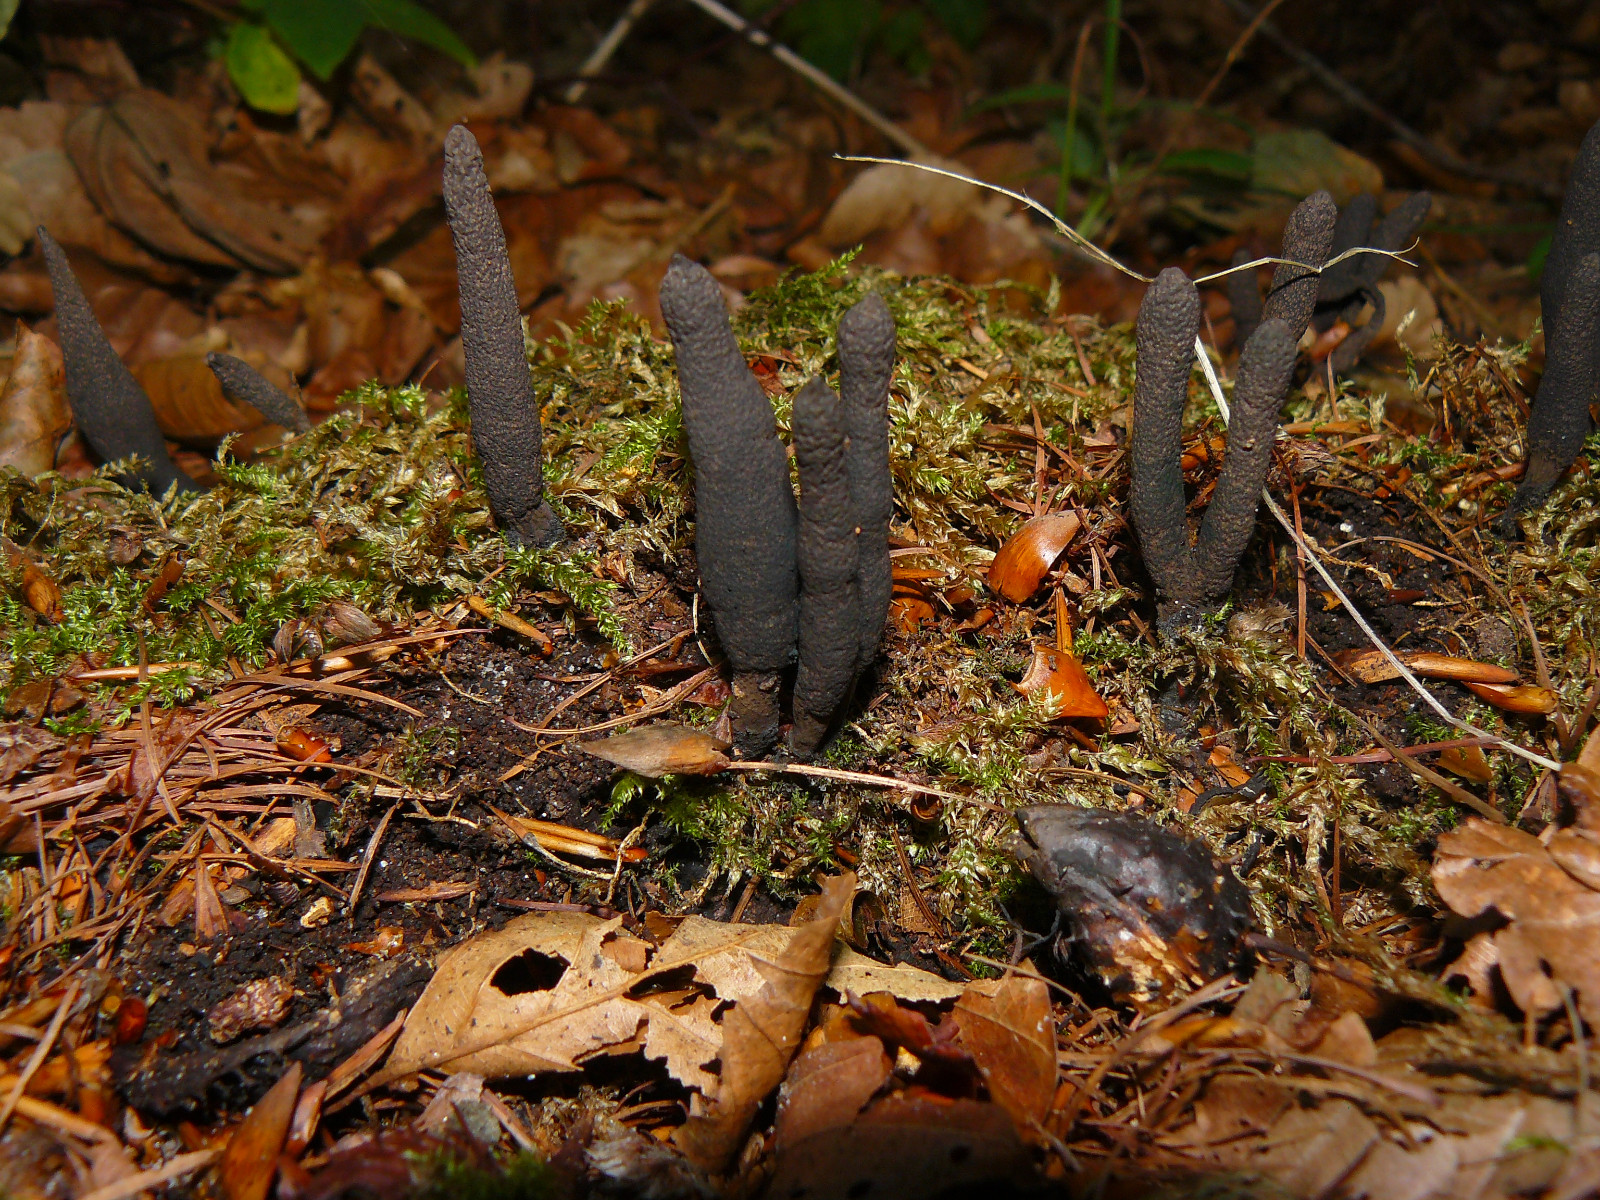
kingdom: Fungi
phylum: Ascomycota
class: Sordariomycetes
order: Xylariales
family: Xylariaceae
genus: Xylaria
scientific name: Xylaria longipes
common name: slank stødsvamp
